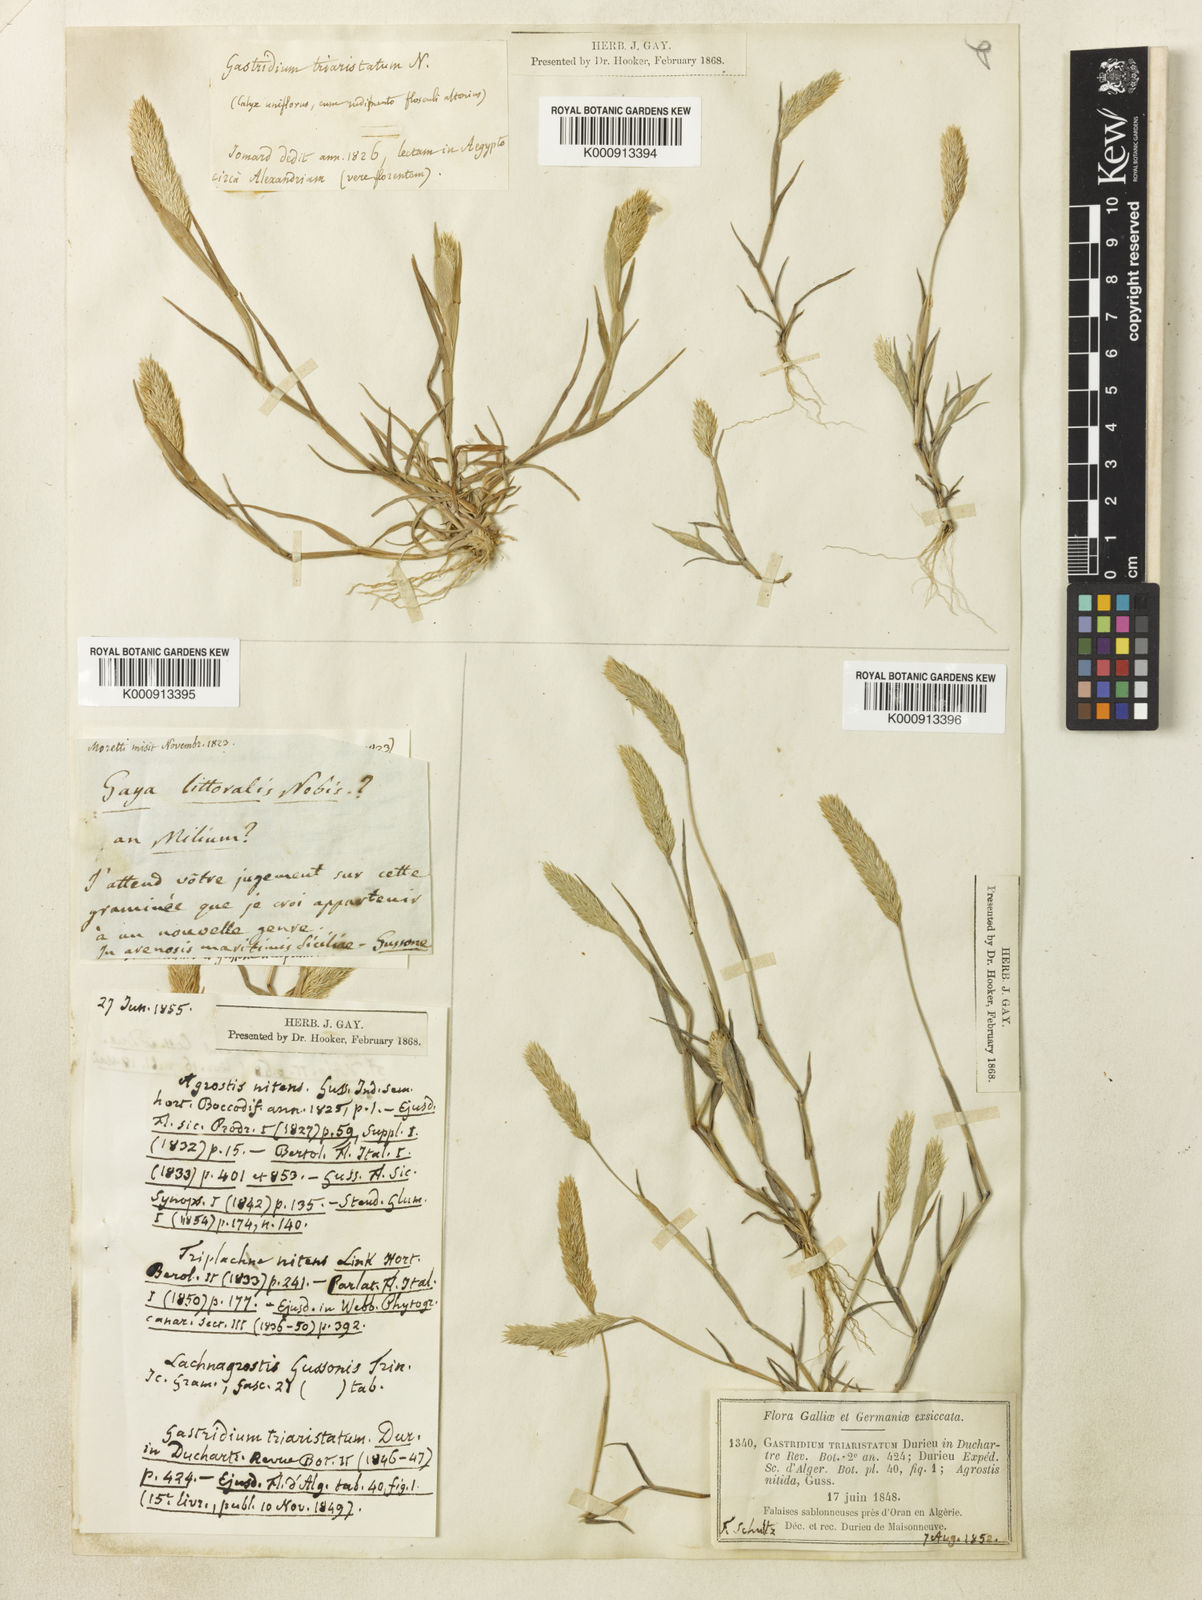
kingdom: Plantae
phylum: Tracheophyta
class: Liliopsida
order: Poales
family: Poaceae
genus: Triplachne
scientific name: Triplachne nitens
